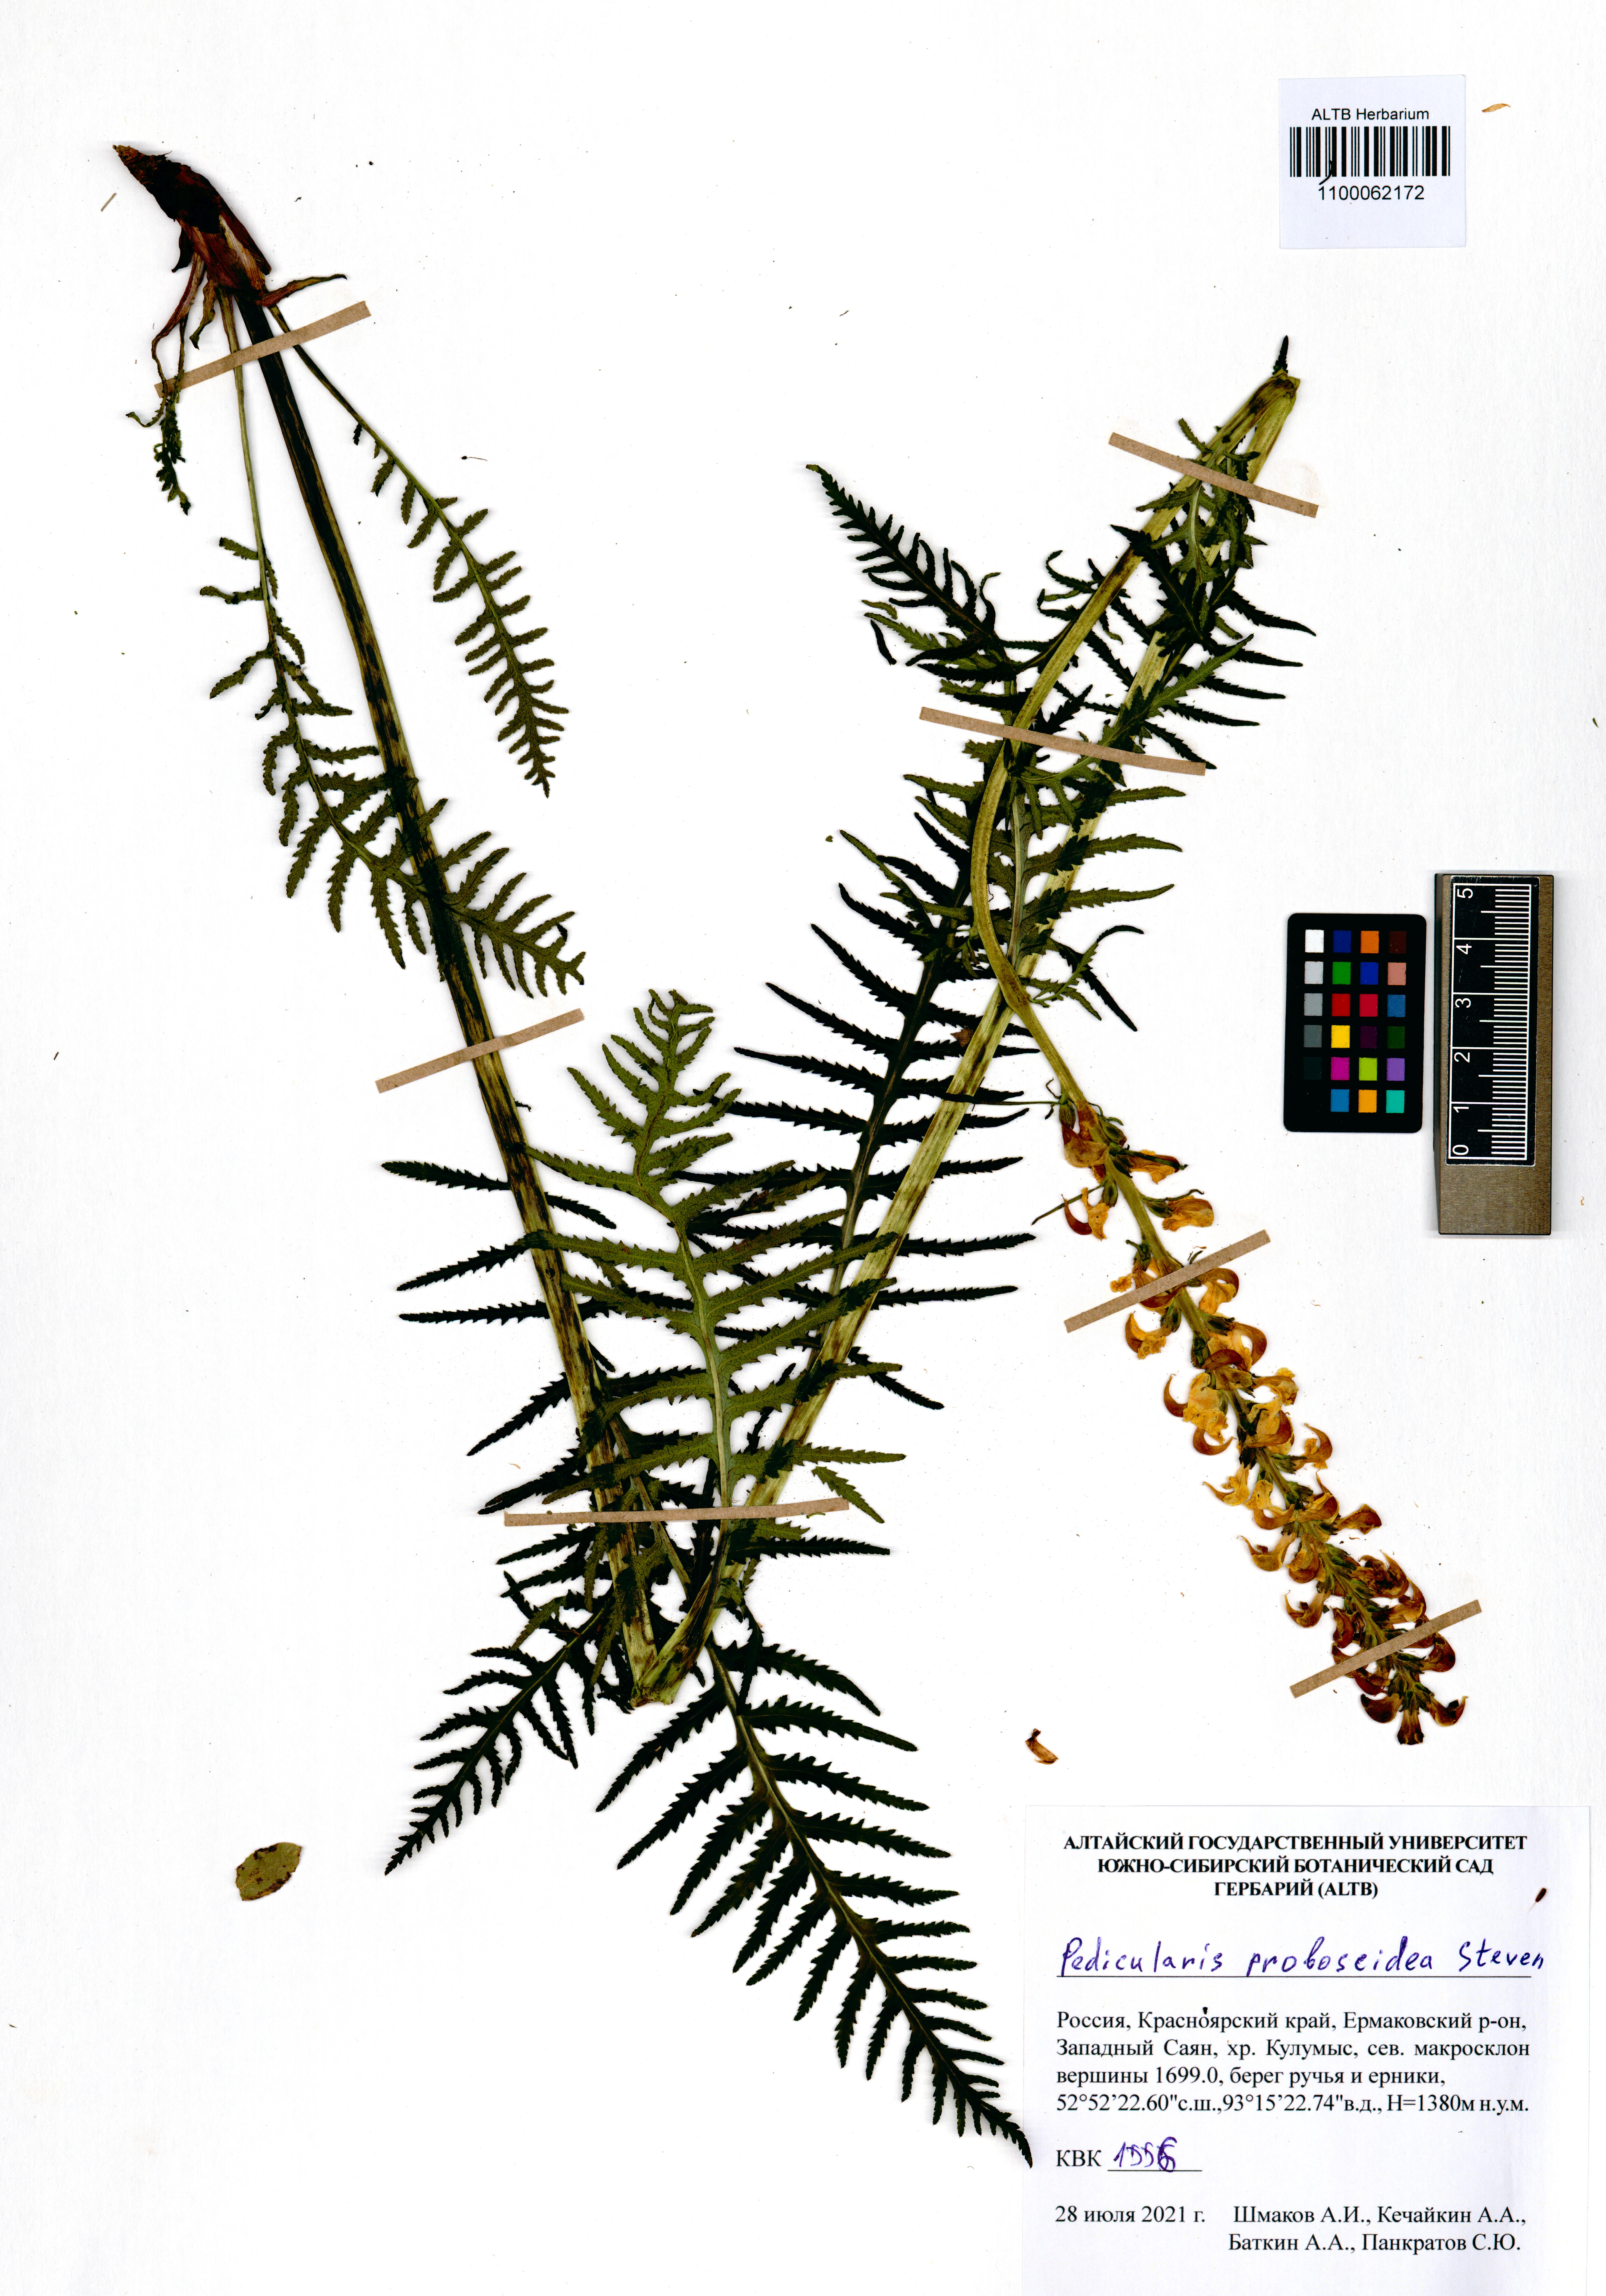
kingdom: Plantae
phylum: Tracheophyta
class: Magnoliopsida
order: Lamiales
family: Orobanchaceae
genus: Pedicularis
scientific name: Pedicularis proboscidea
